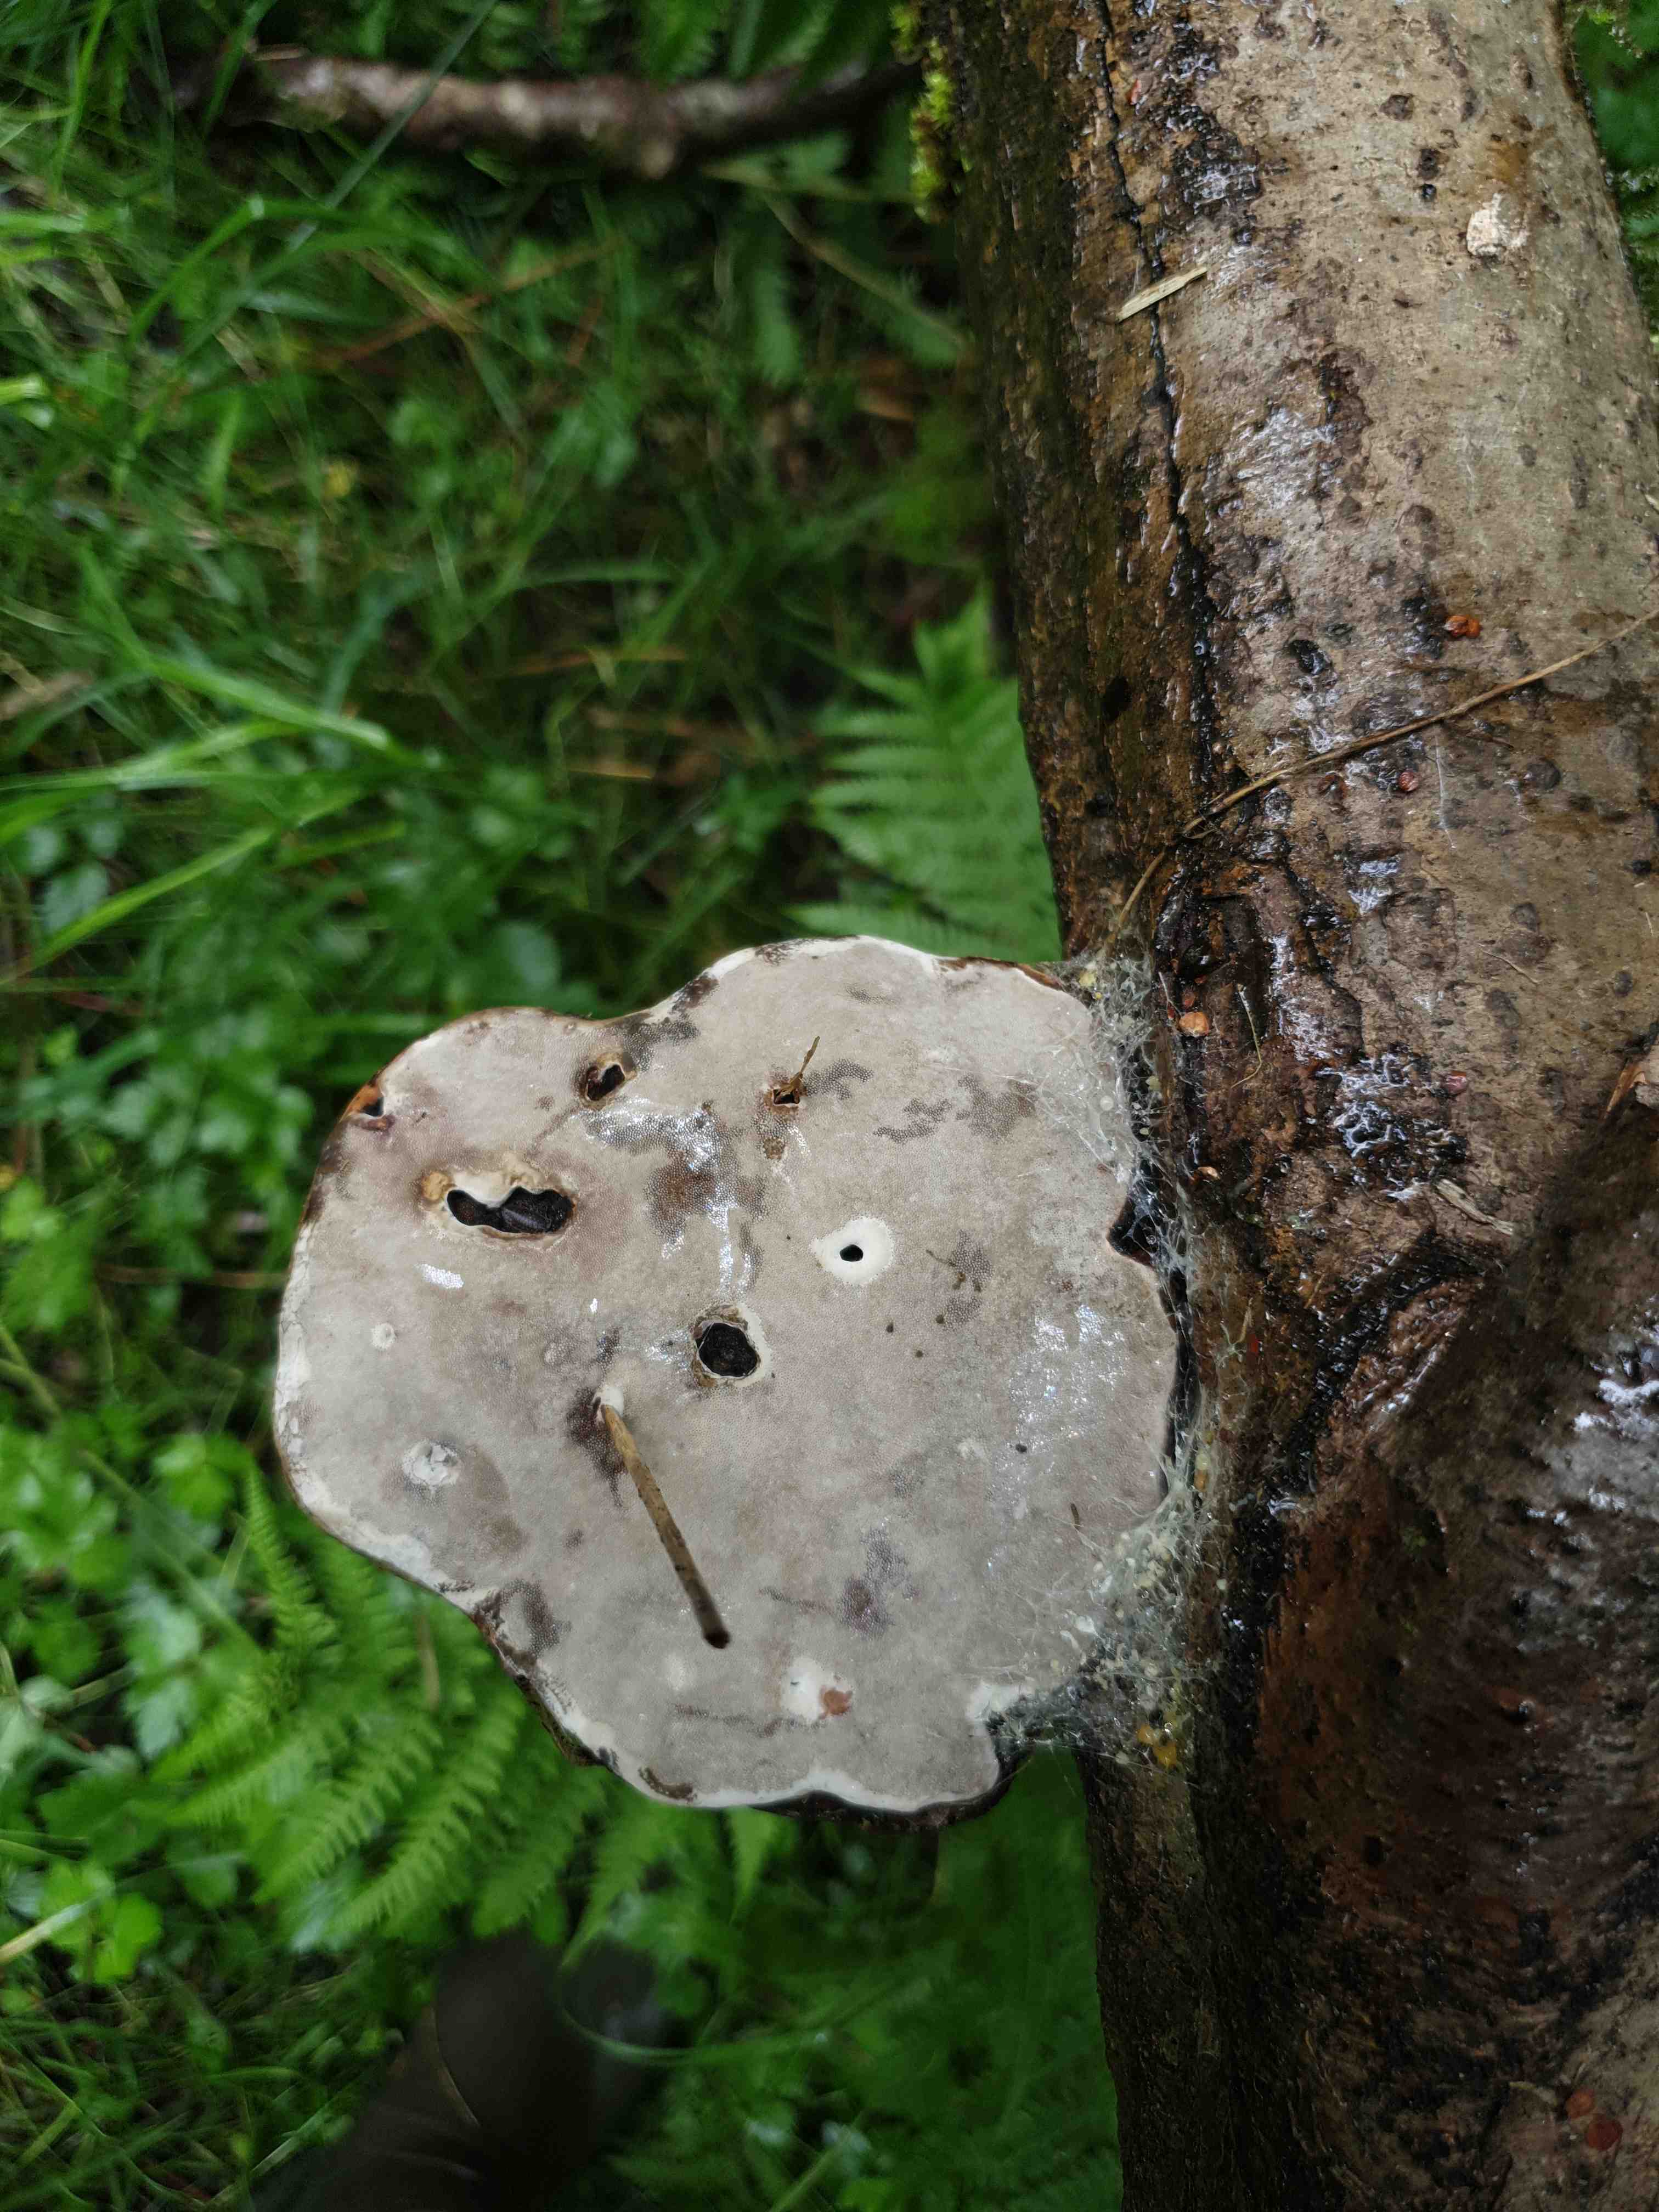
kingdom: Fungi
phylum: Basidiomycota
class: Agaricomycetes
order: Polyporales
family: Polyporaceae
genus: Fomes
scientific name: Fomes fomentarius
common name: tøndersvamp
